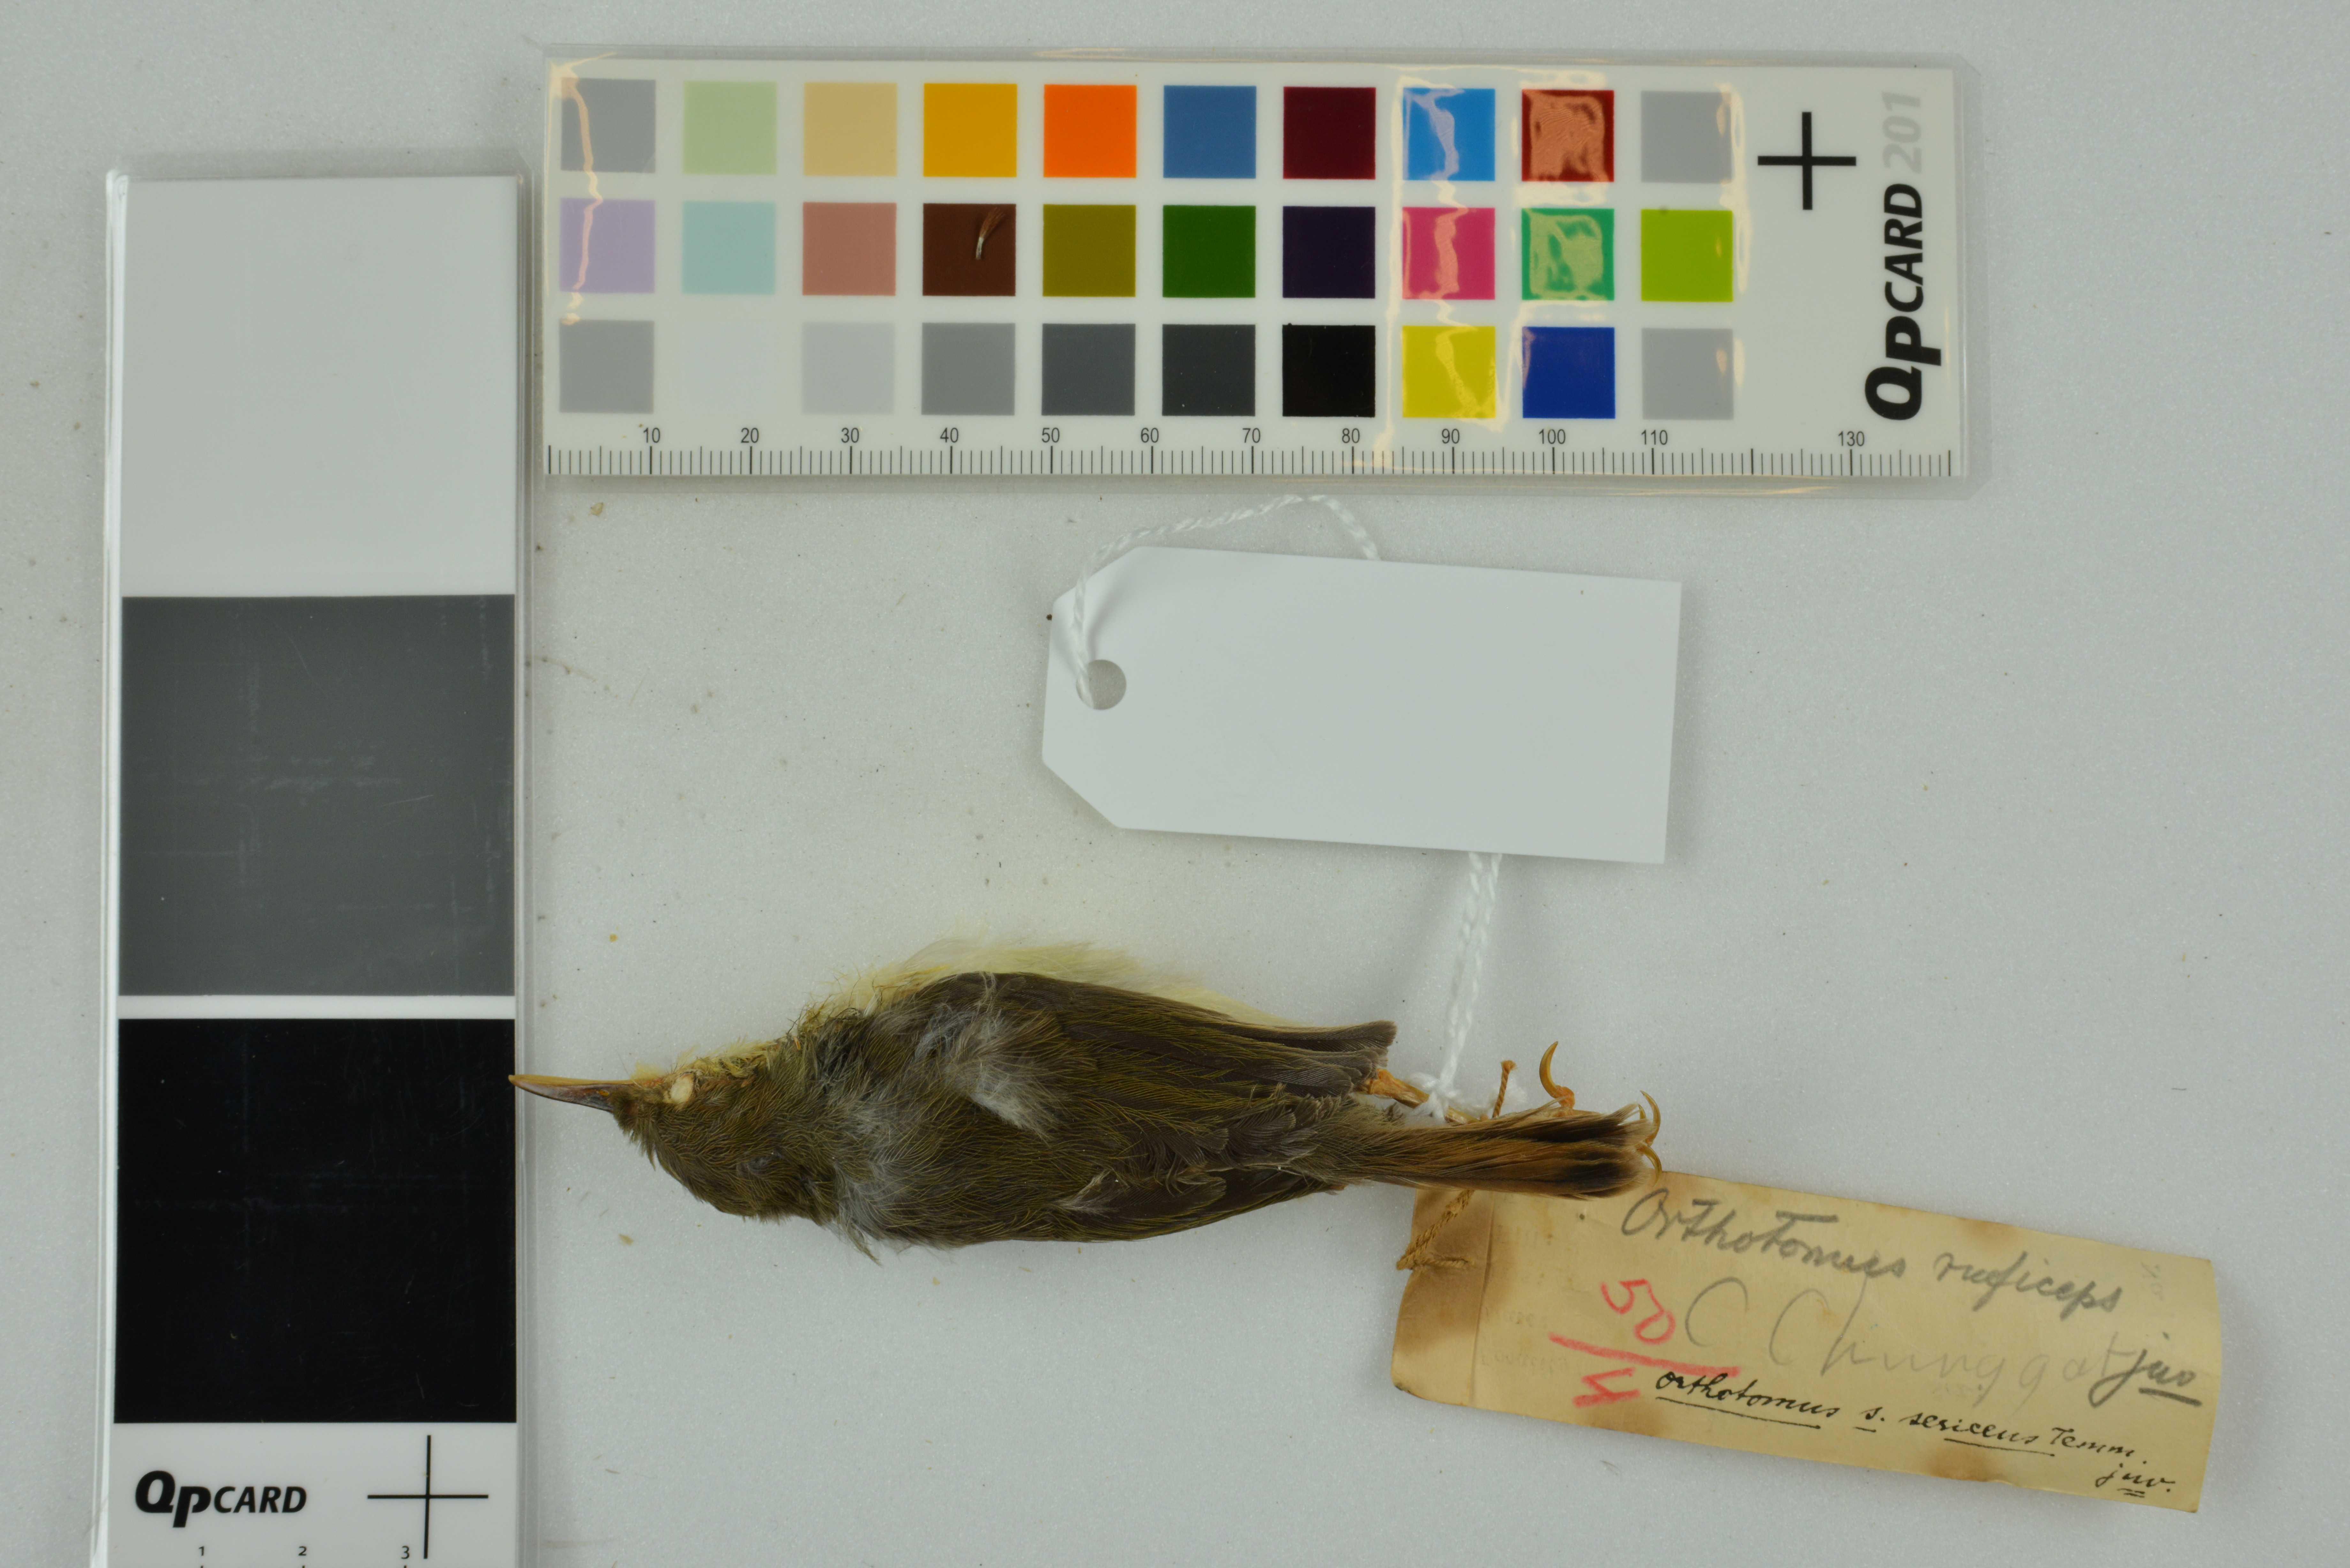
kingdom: Animalia
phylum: Chordata
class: Aves
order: Passeriformes
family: Cisticolidae
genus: Orthotomus
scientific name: Orthotomus sericeus
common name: Rufous-tailed tailorbird
